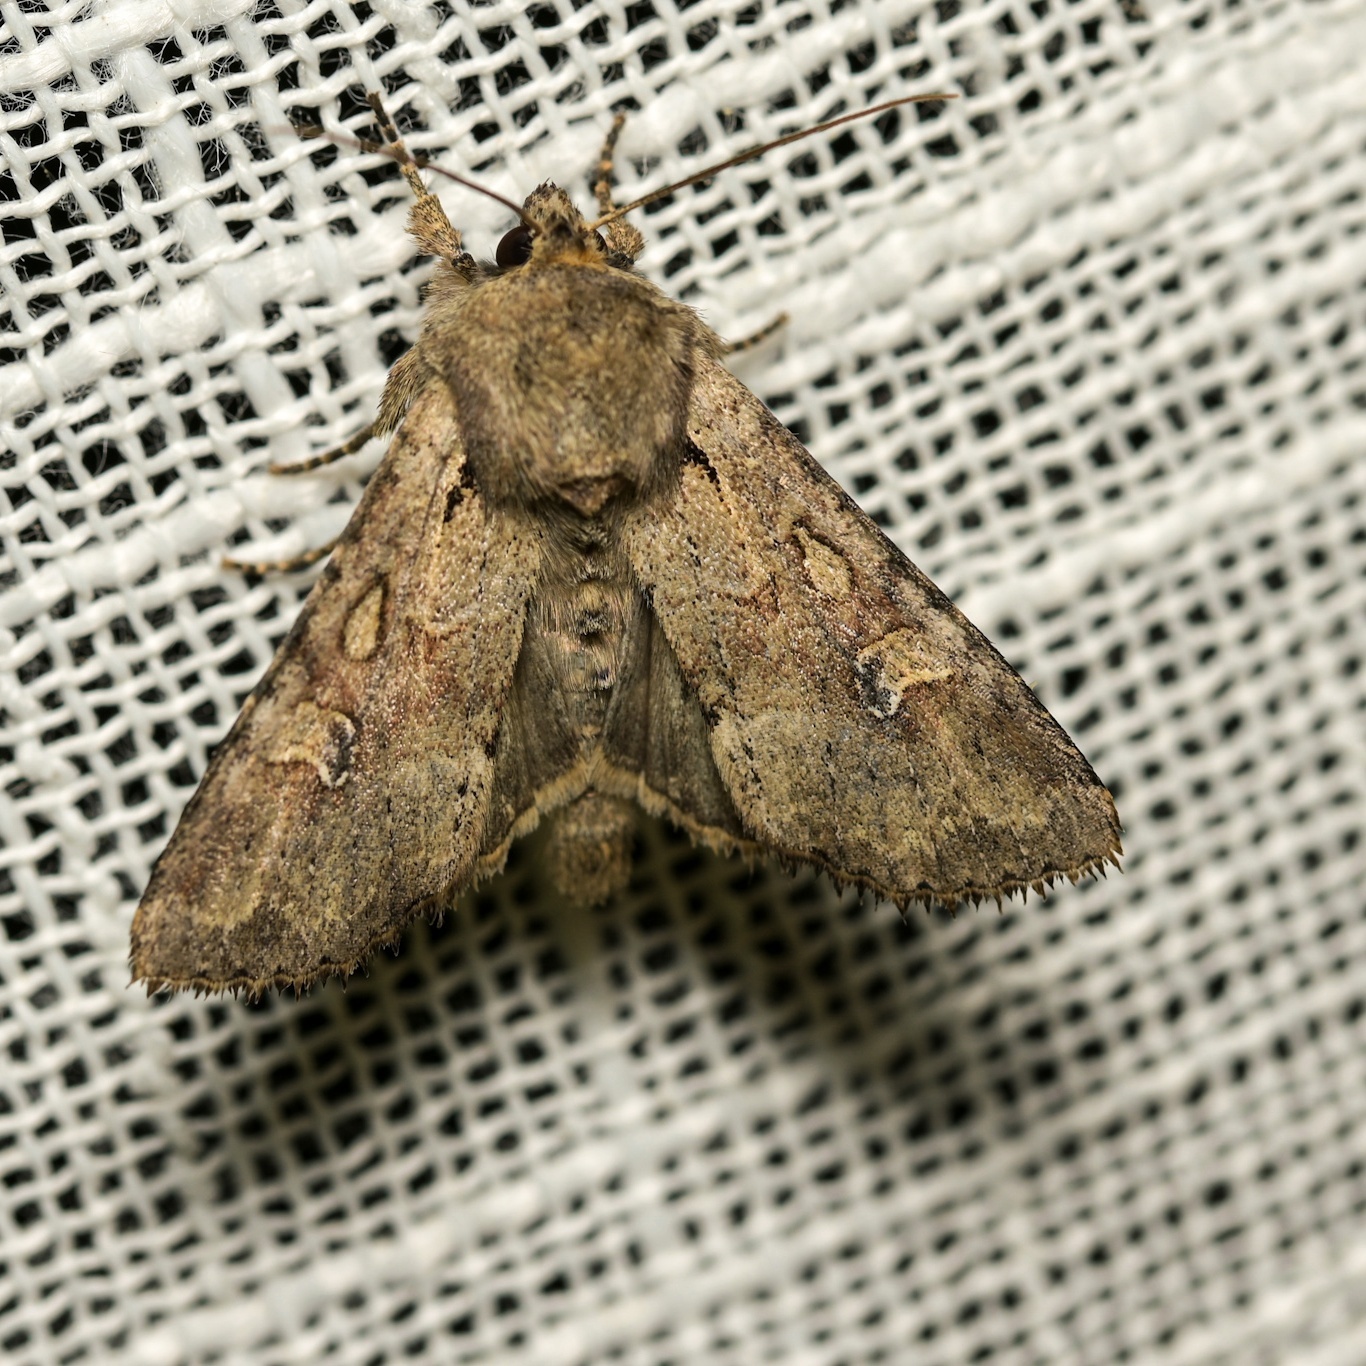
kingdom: Animalia
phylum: Arthropoda
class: Insecta
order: Lepidoptera
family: Noctuidae
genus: Apamea
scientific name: Apamea sordens
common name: Rustic shoulder-knot
